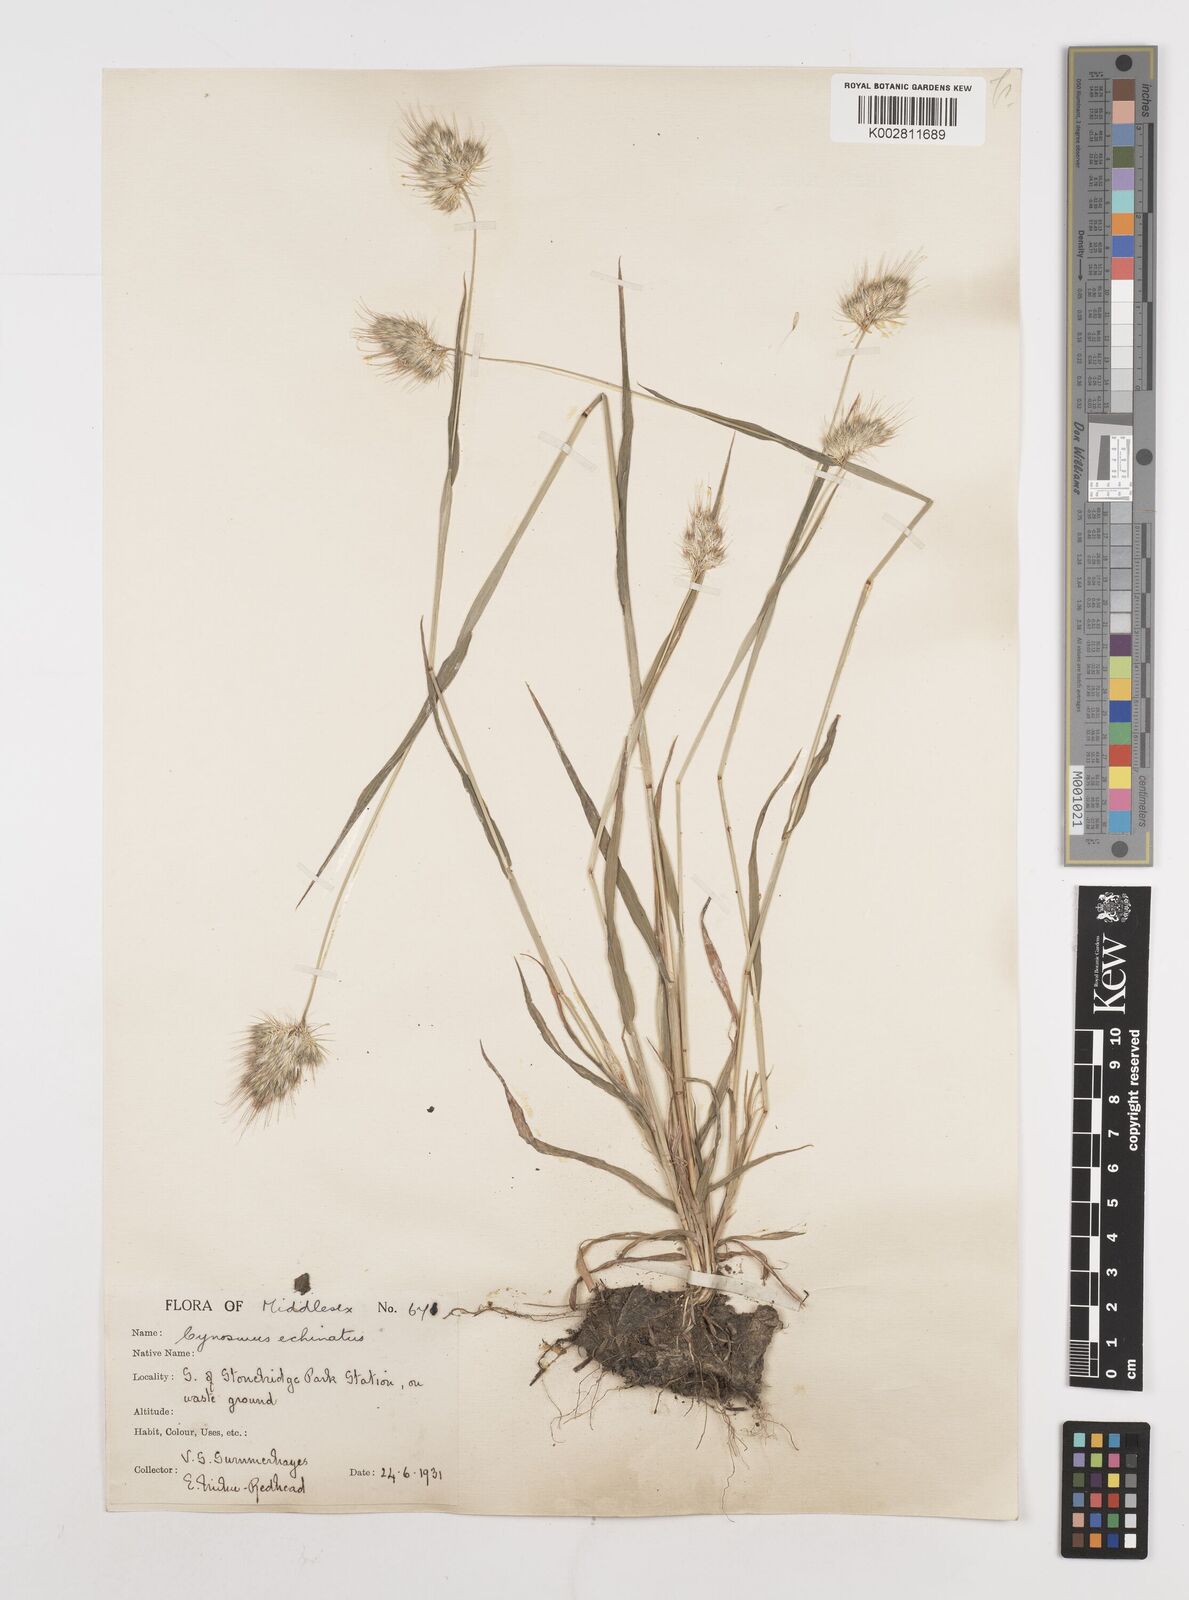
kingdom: Plantae
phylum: Tracheophyta
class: Liliopsida
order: Poales
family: Poaceae
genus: Cynosurus
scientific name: Cynosurus echinatus
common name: Rough dog's-tail
